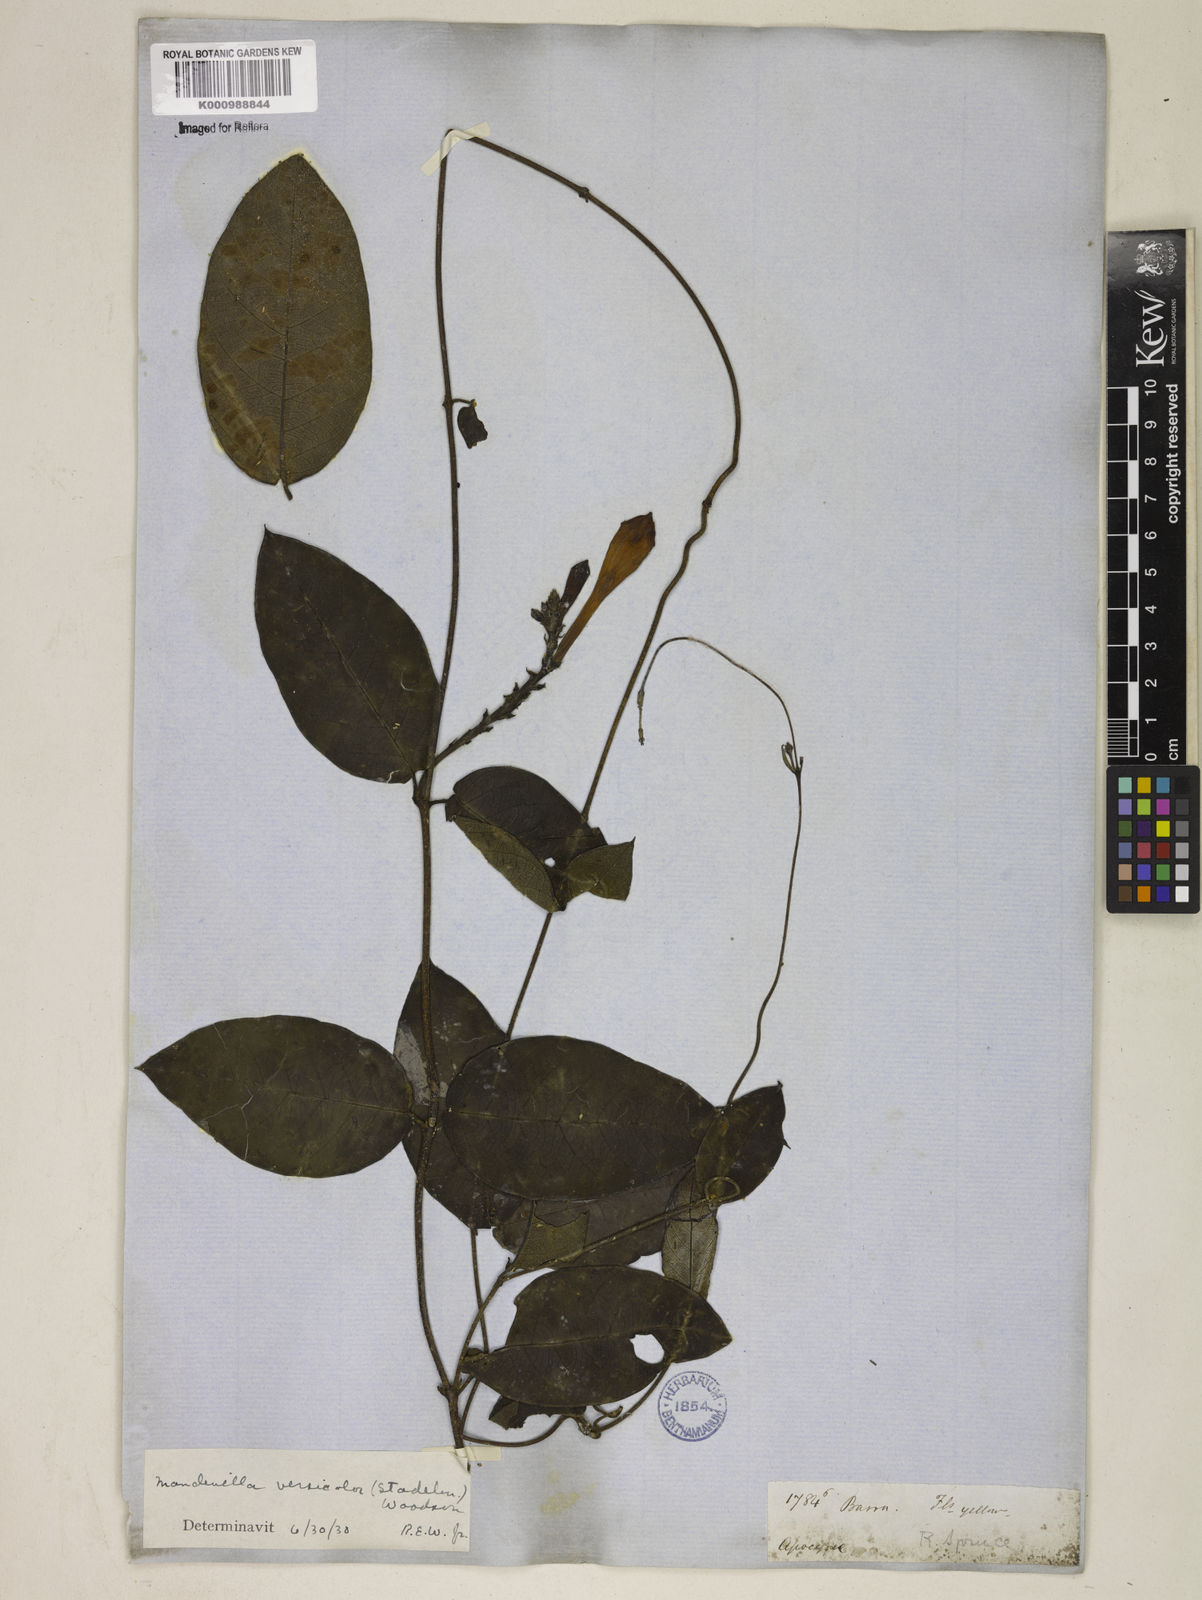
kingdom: Plantae
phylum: Tracheophyta
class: Magnoliopsida
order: Gentianales
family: Apocynaceae
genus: Mandevilla
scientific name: Mandevilla scabra
